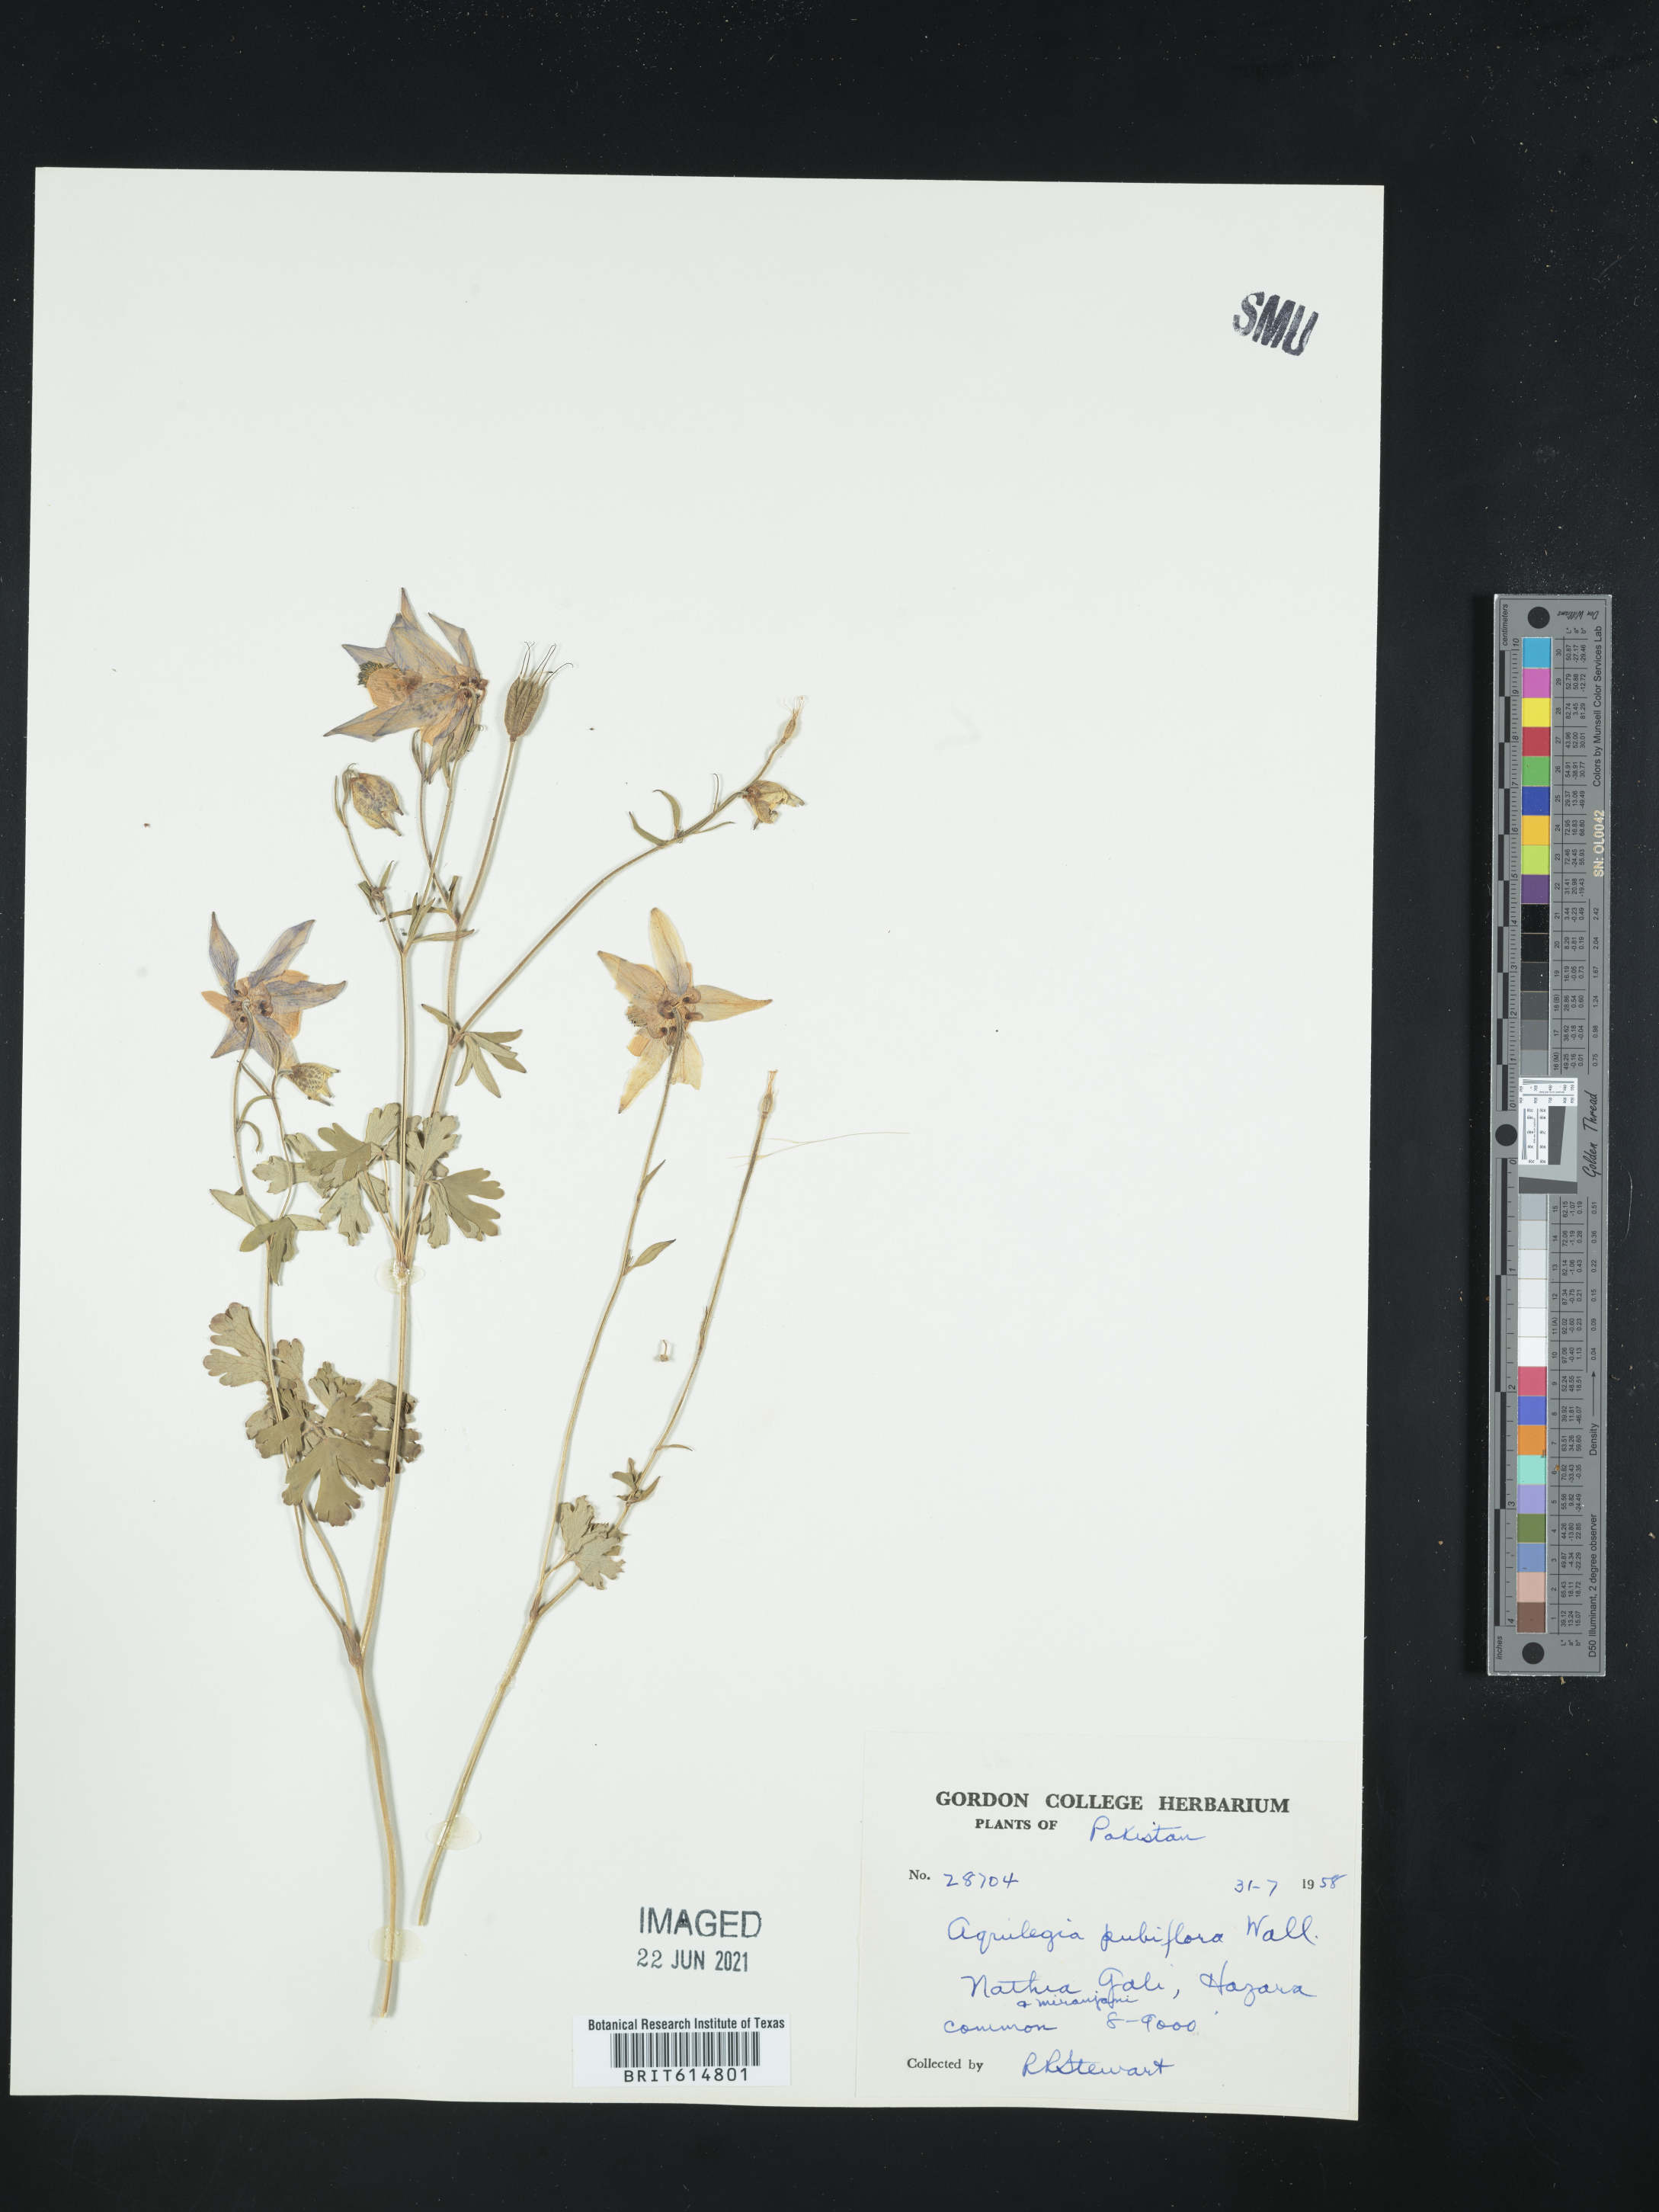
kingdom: Plantae
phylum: Tracheophyta
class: Magnoliopsida
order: Ranunculales
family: Ranunculaceae
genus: Aquilegia
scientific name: Aquilegia pubiflora
